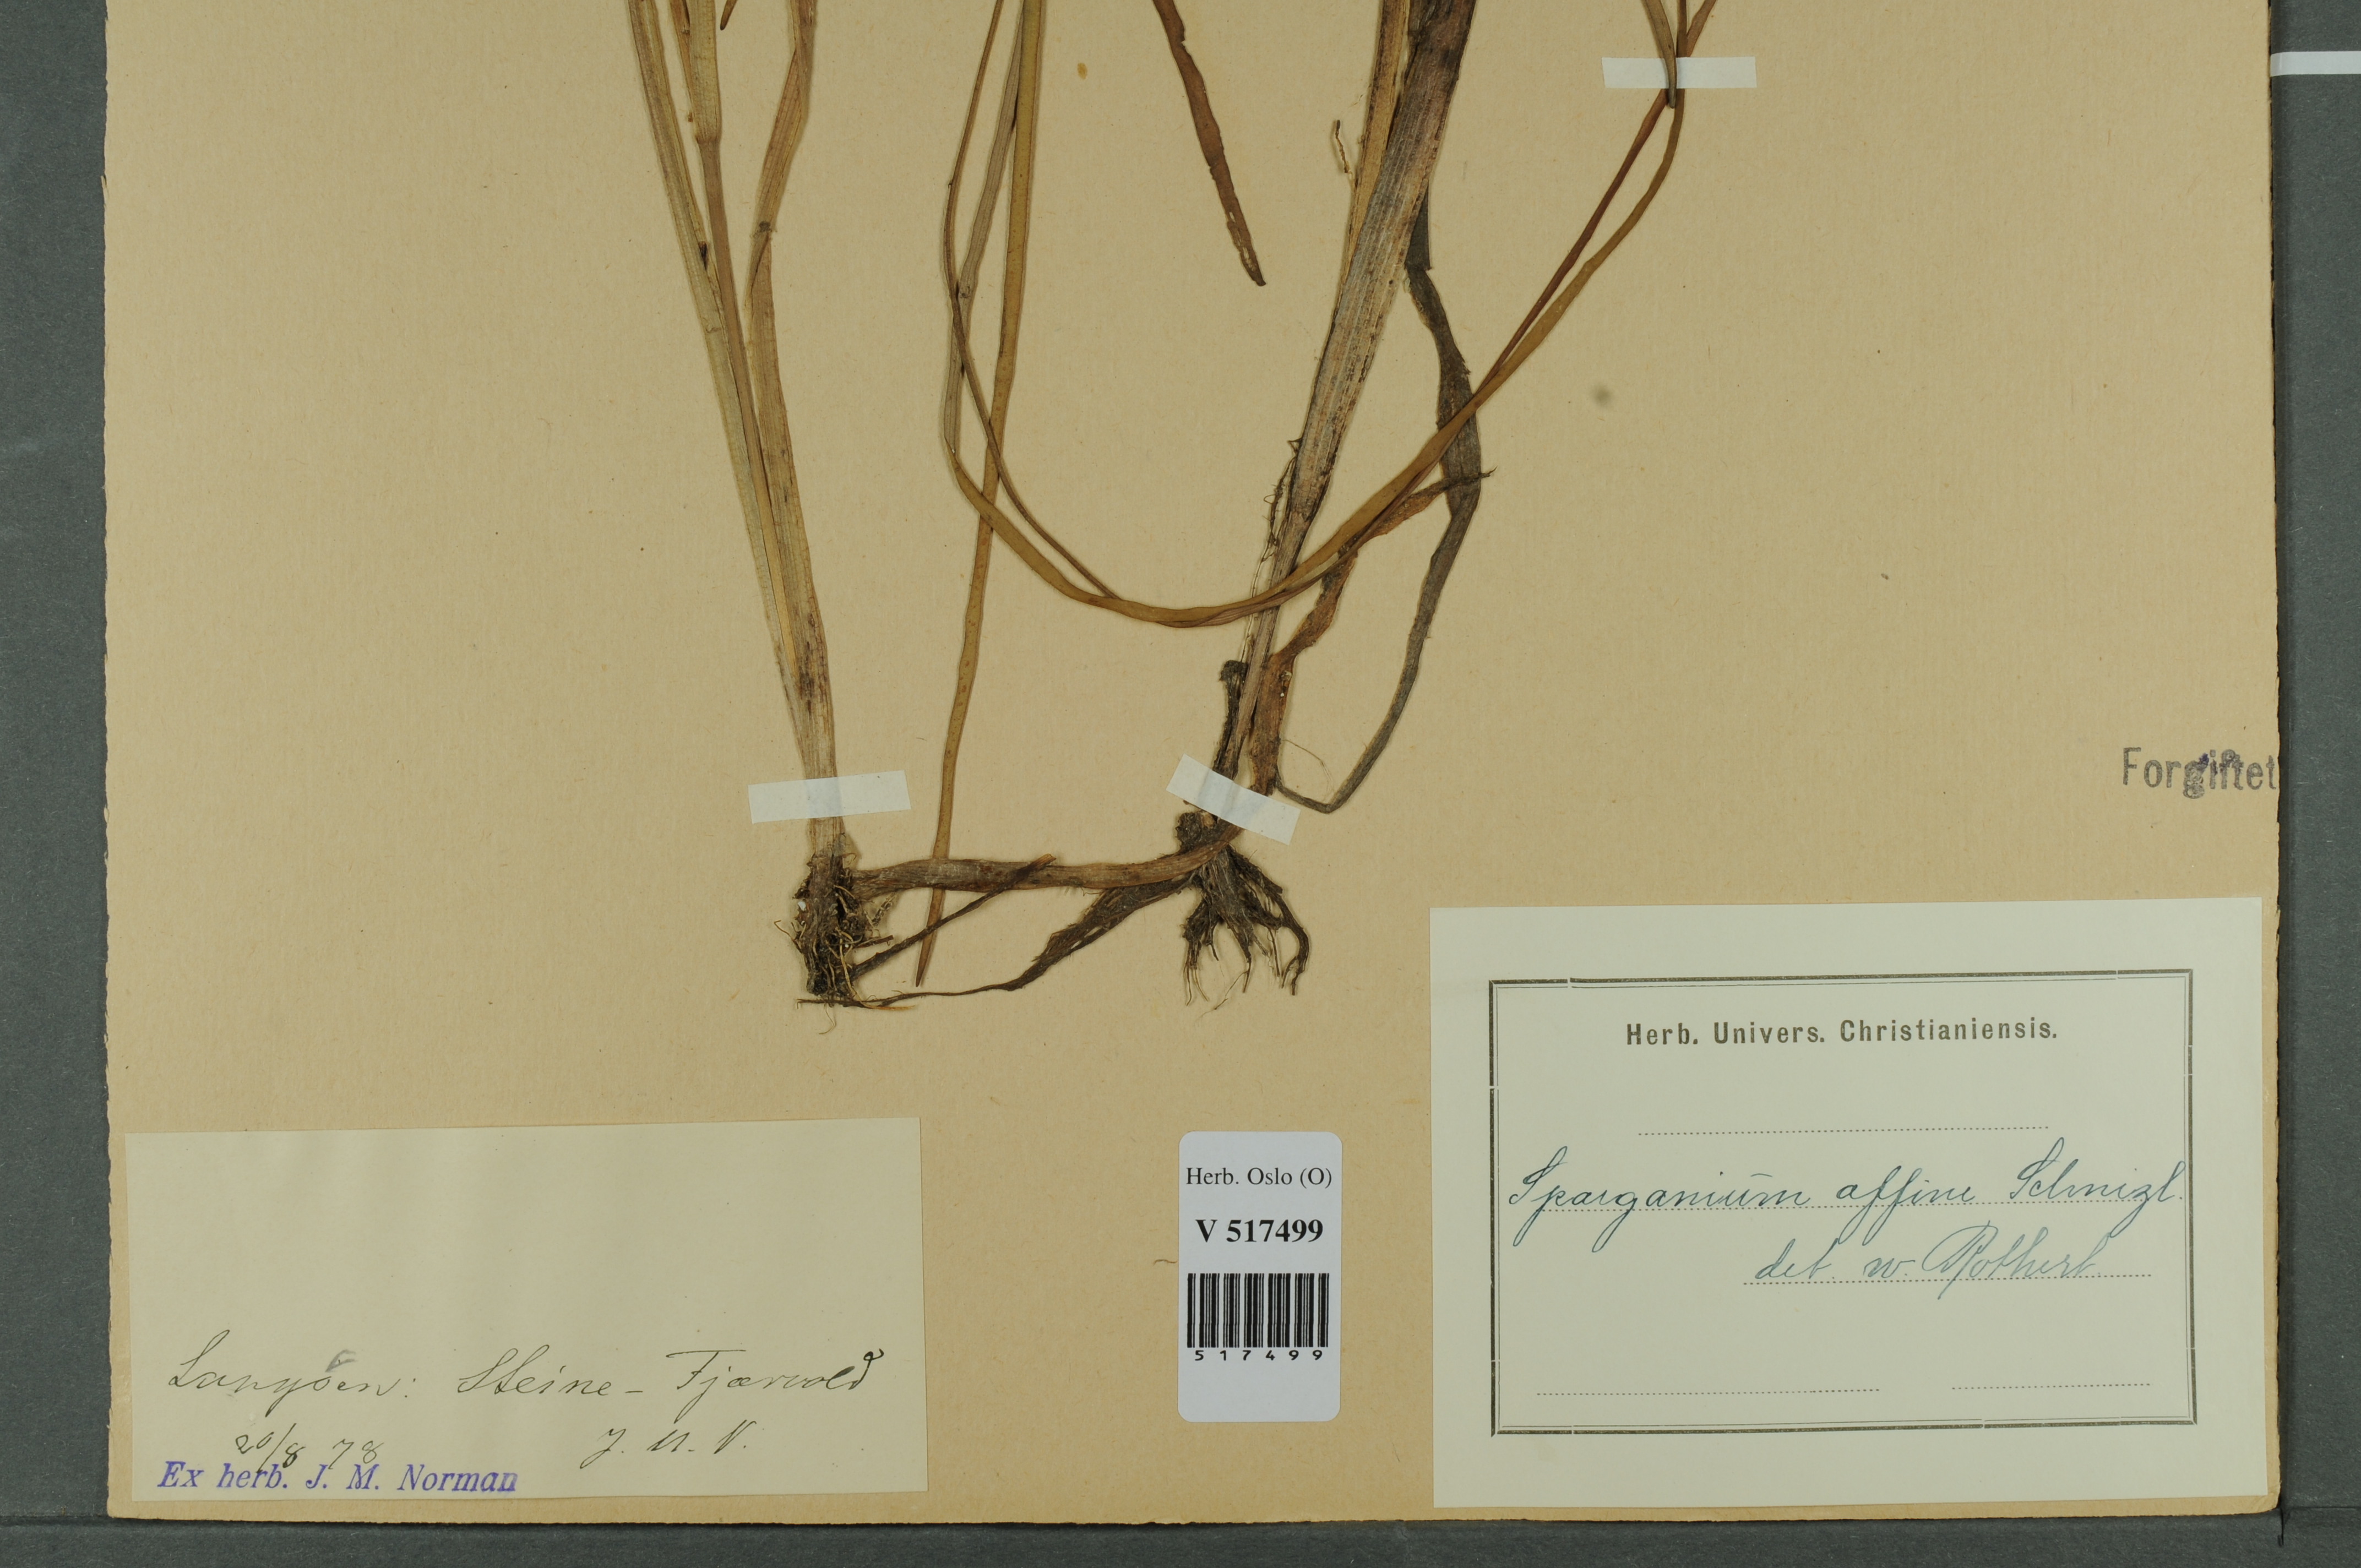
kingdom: Plantae
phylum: Tracheophyta
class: Liliopsida
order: Poales
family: Typhaceae
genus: Sparganium
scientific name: Sparganium angustifolium
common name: Floating bur-reed
